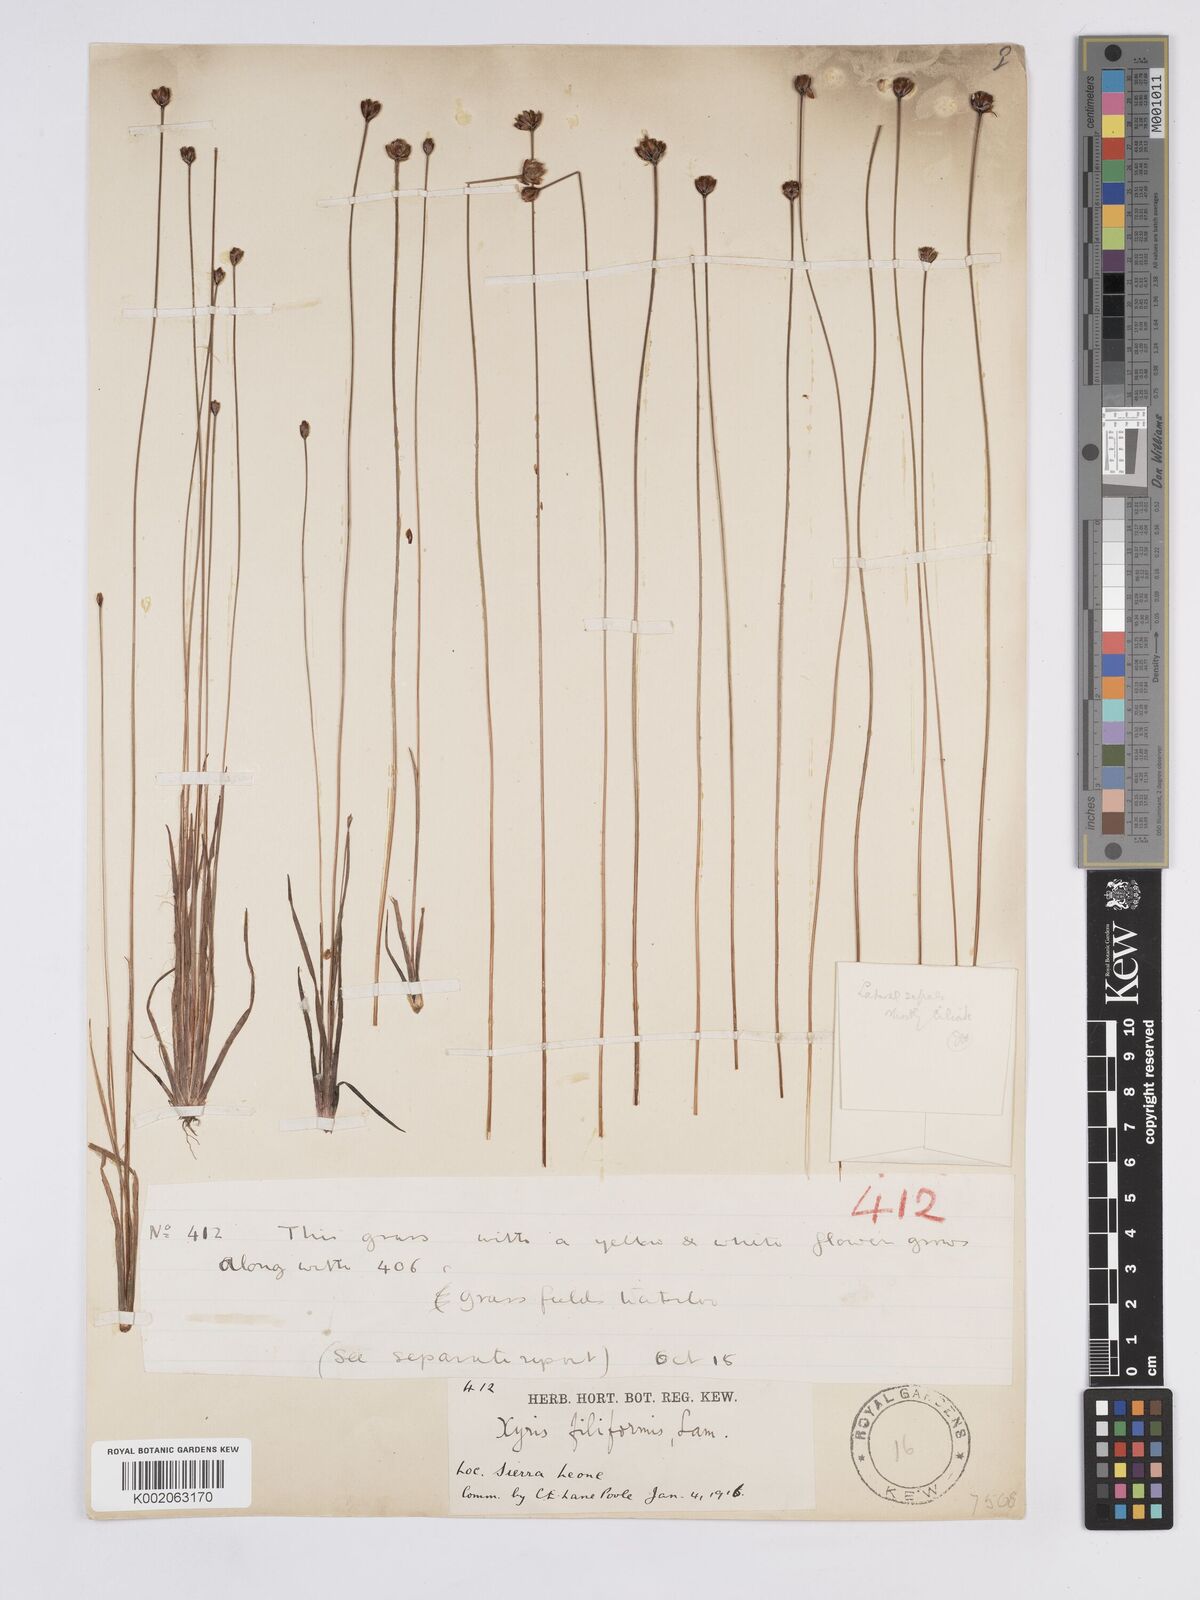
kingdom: Plantae
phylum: Tracheophyta
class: Liliopsida
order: Poales
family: Xyridaceae
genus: Xyris
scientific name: Xyris filiformis
